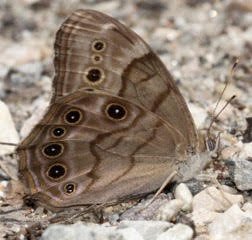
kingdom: Animalia
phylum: Arthropoda
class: Insecta
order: Lepidoptera
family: Nymphalidae
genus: Lethe
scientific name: Lethe anthedon
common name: Northern Pearly-Eye
